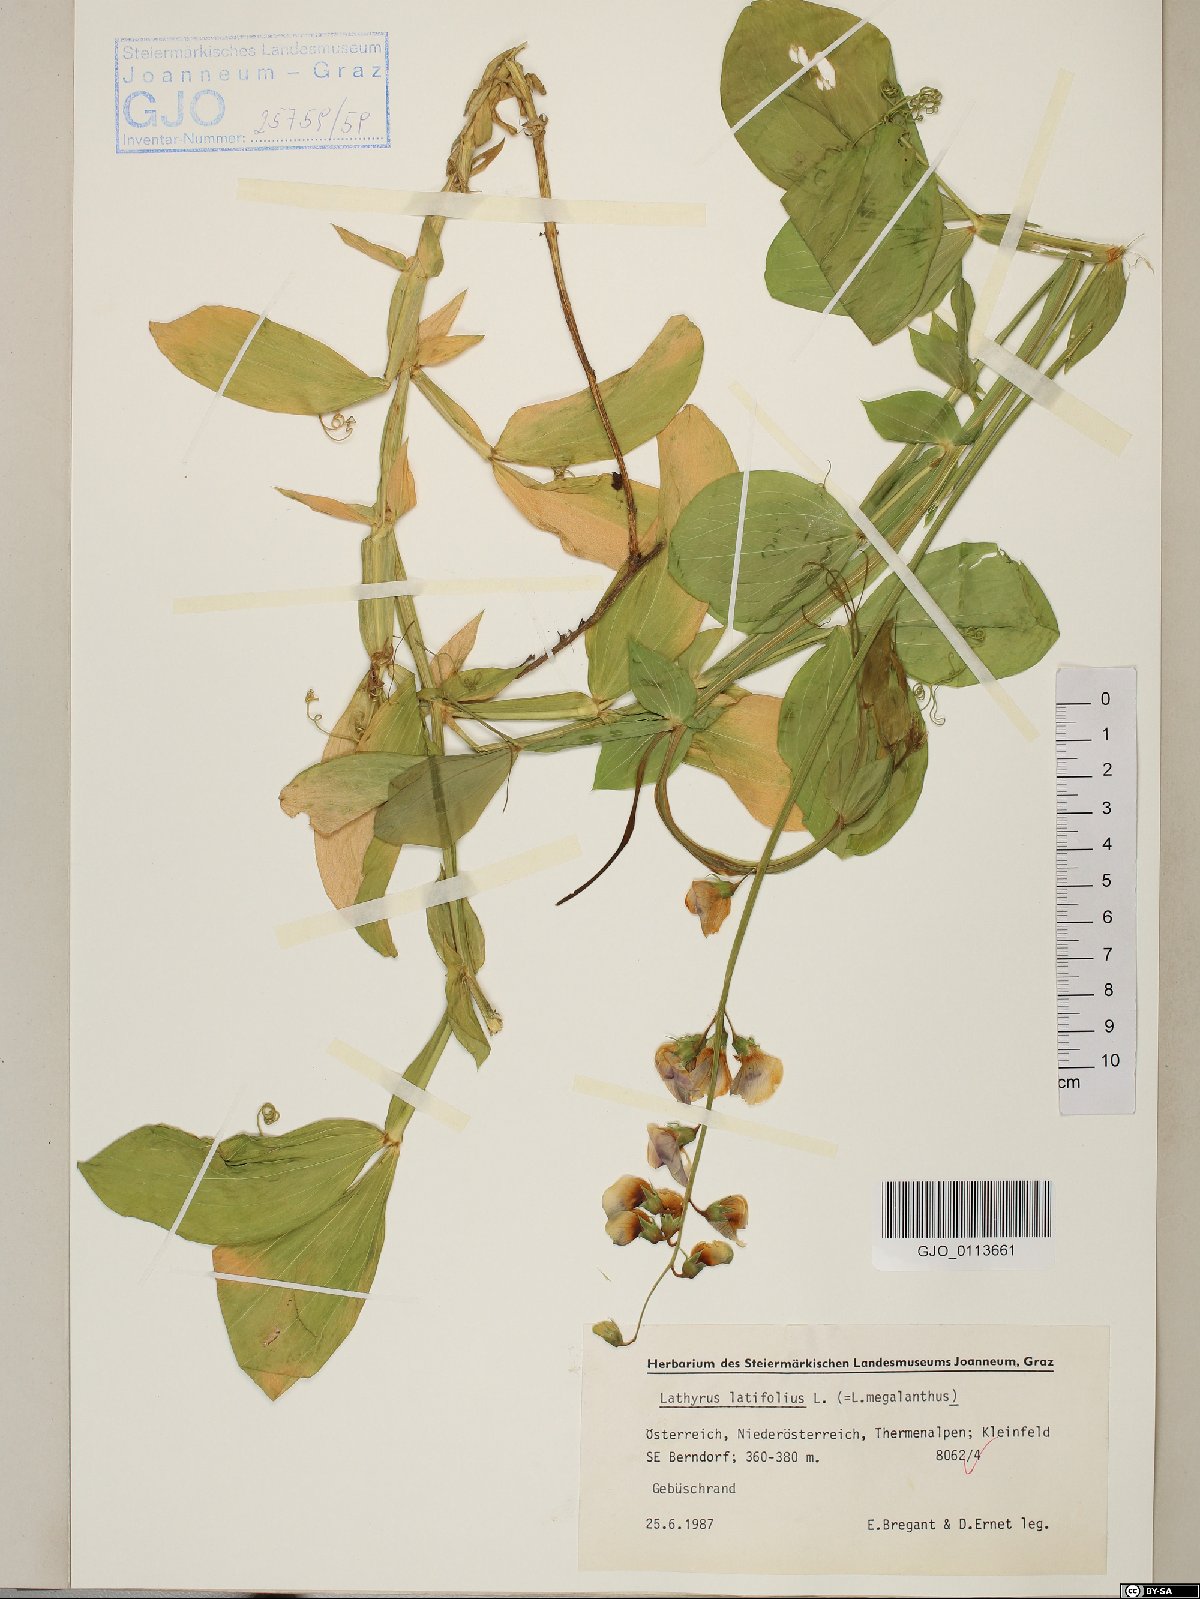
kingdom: Plantae
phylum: Tracheophyta
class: Magnoliopsida
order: Fabales
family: Fabaceae
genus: Lathyrus
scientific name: Lathyrus latifolius
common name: Perennial pea
